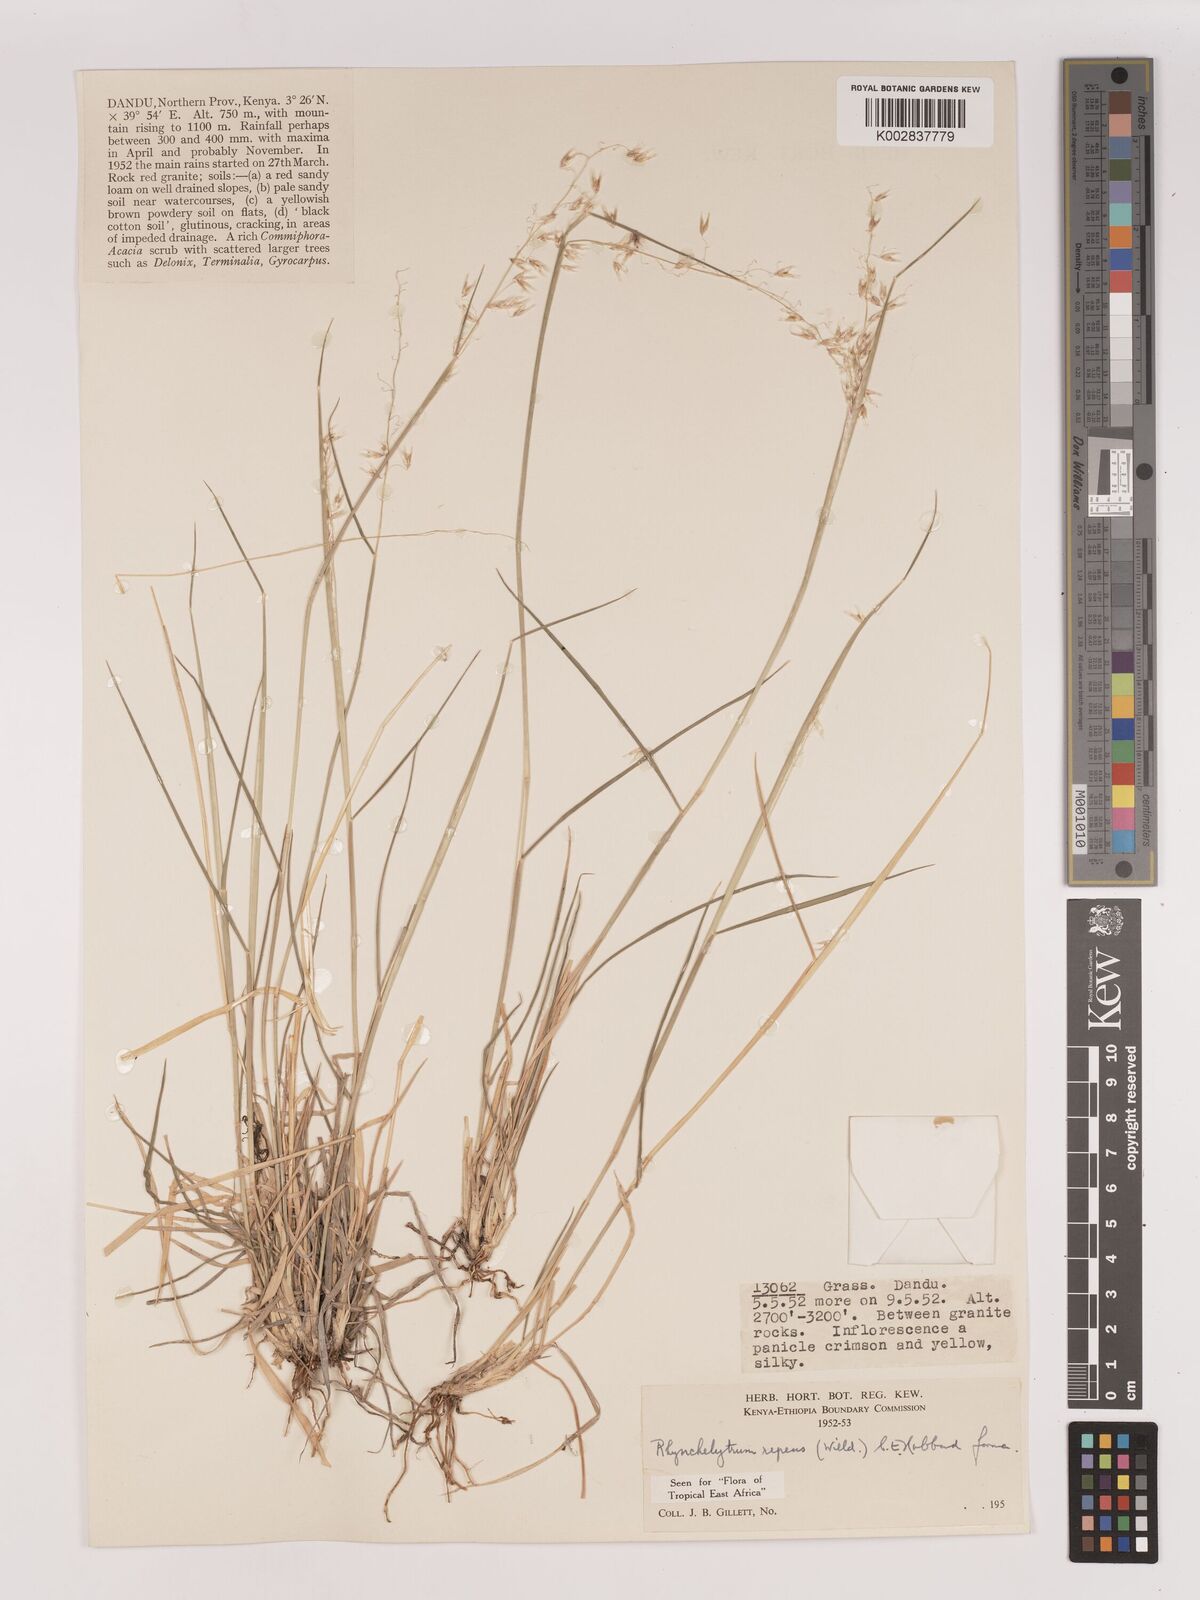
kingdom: Plantae
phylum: Tracheophyta
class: Liliopsida
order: Poales
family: Poaceae
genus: Melinis
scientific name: Melinis repens
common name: Rose natal grass
